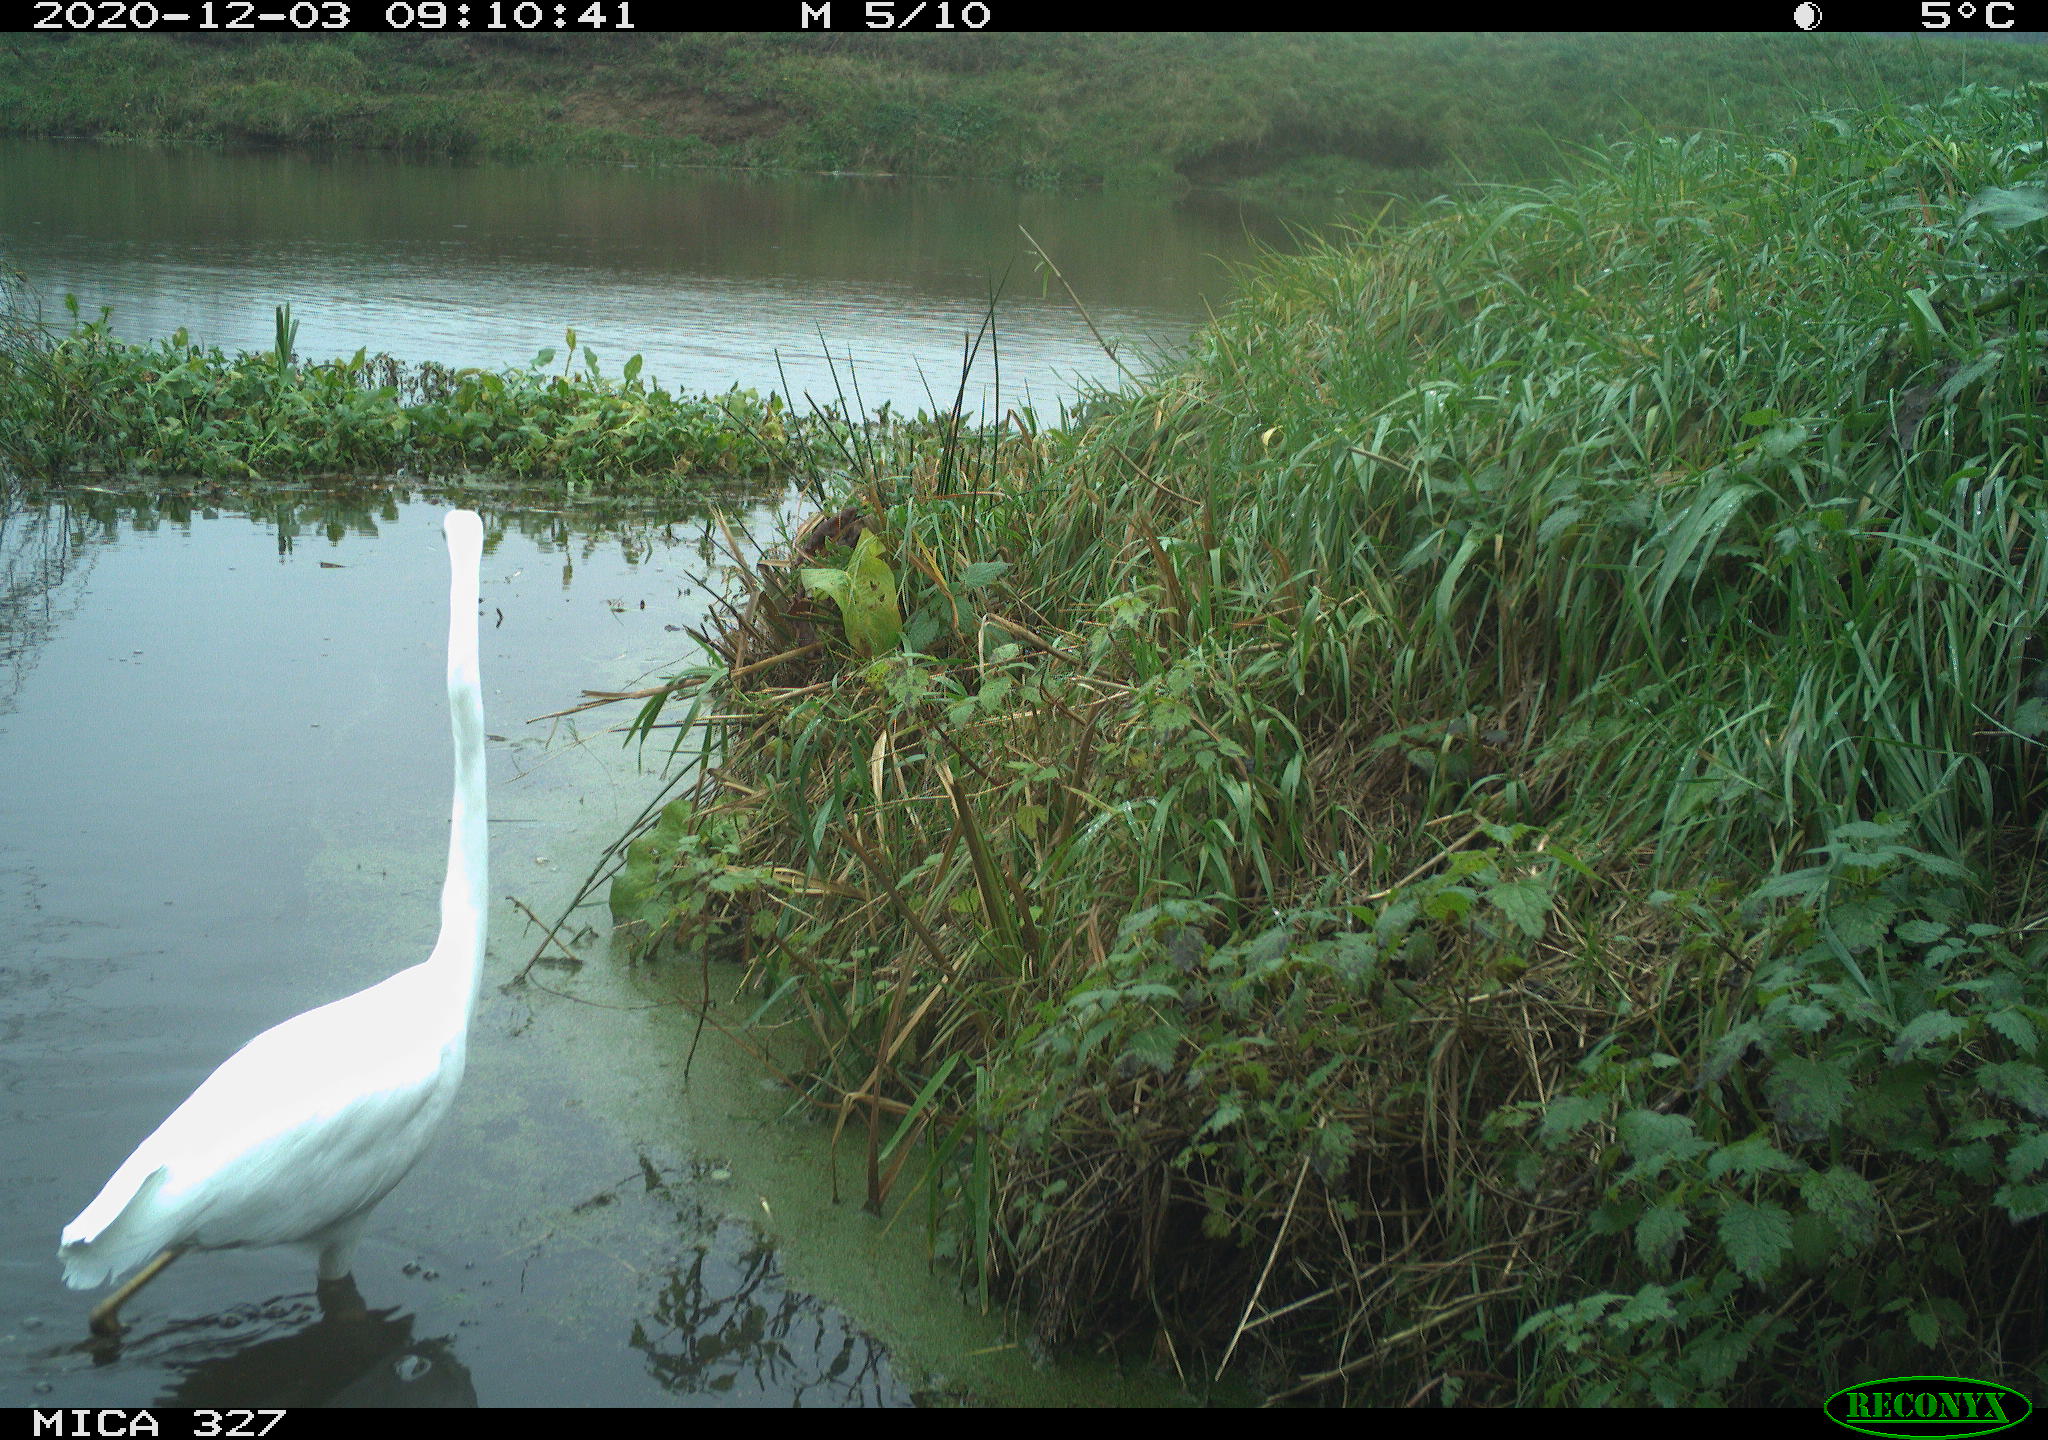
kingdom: Animalia
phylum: Chordata
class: Aves
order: Pelecaniformes
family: Ardeidae
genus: Ardea
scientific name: Ardea alba
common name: Great egret
